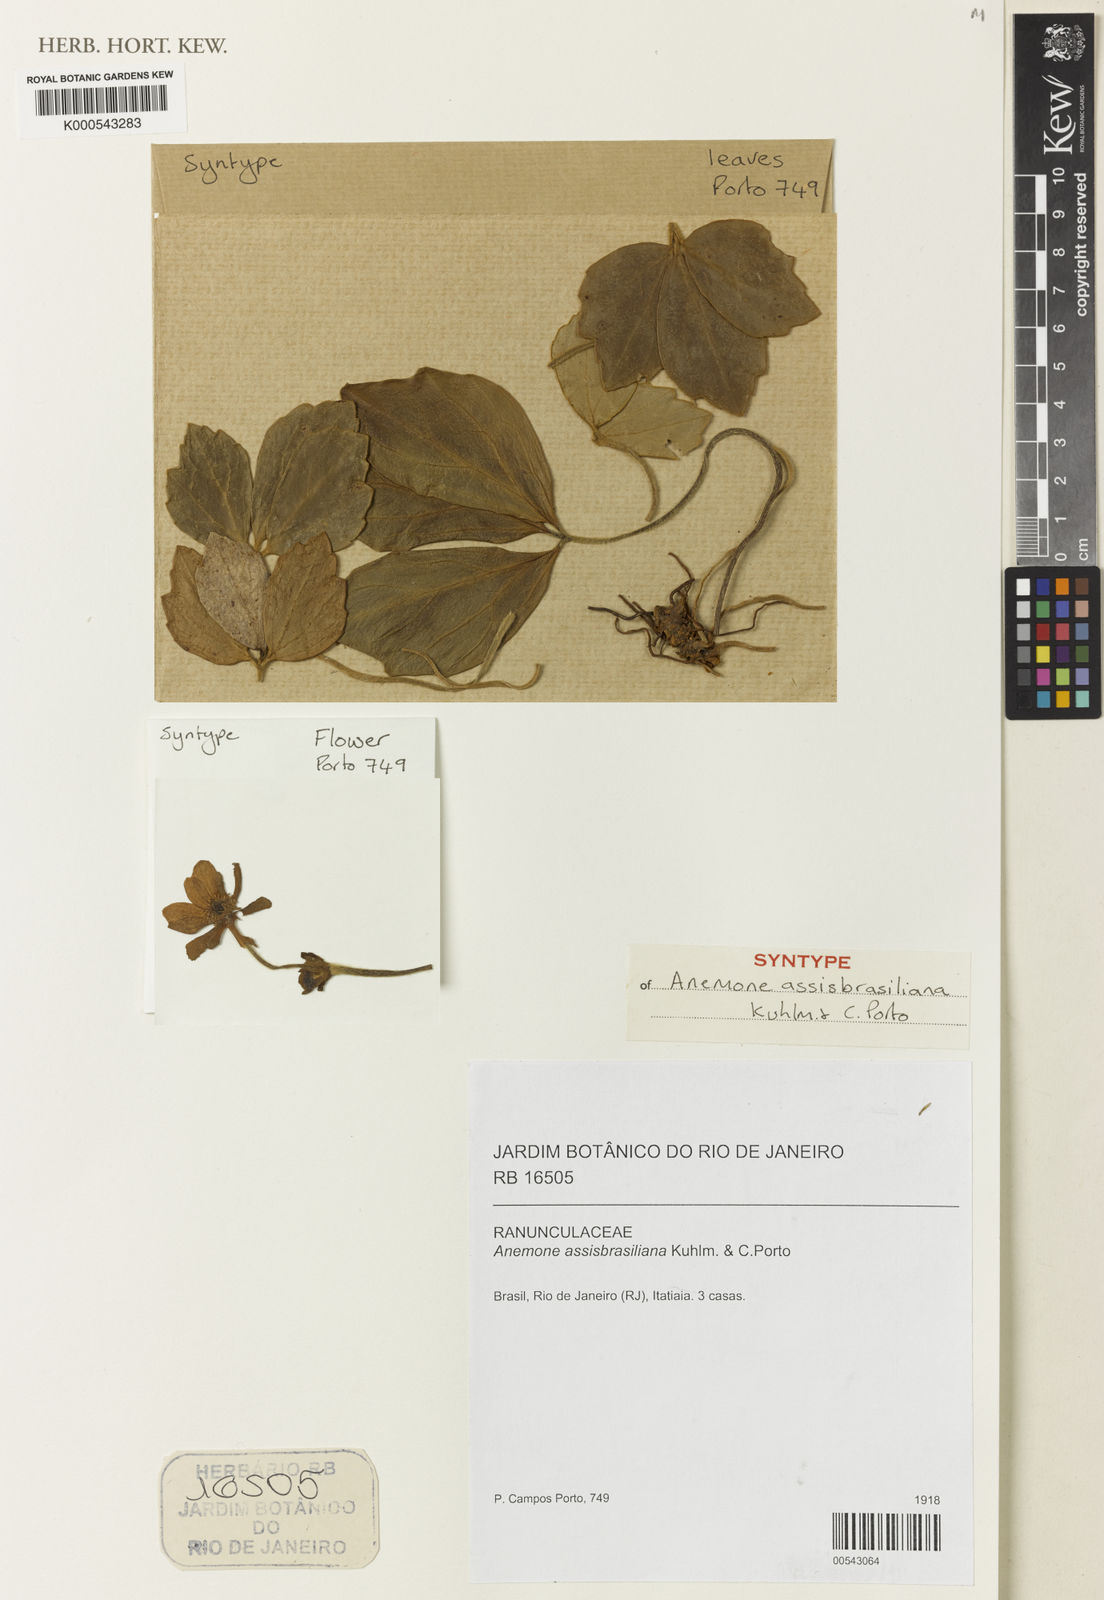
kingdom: Plantae
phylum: Tracheophyta
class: Magnoliopsida
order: Ranunculales
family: Ranunculaceae
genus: Knowltonia
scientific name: Knowltonia assisbrasiliana
